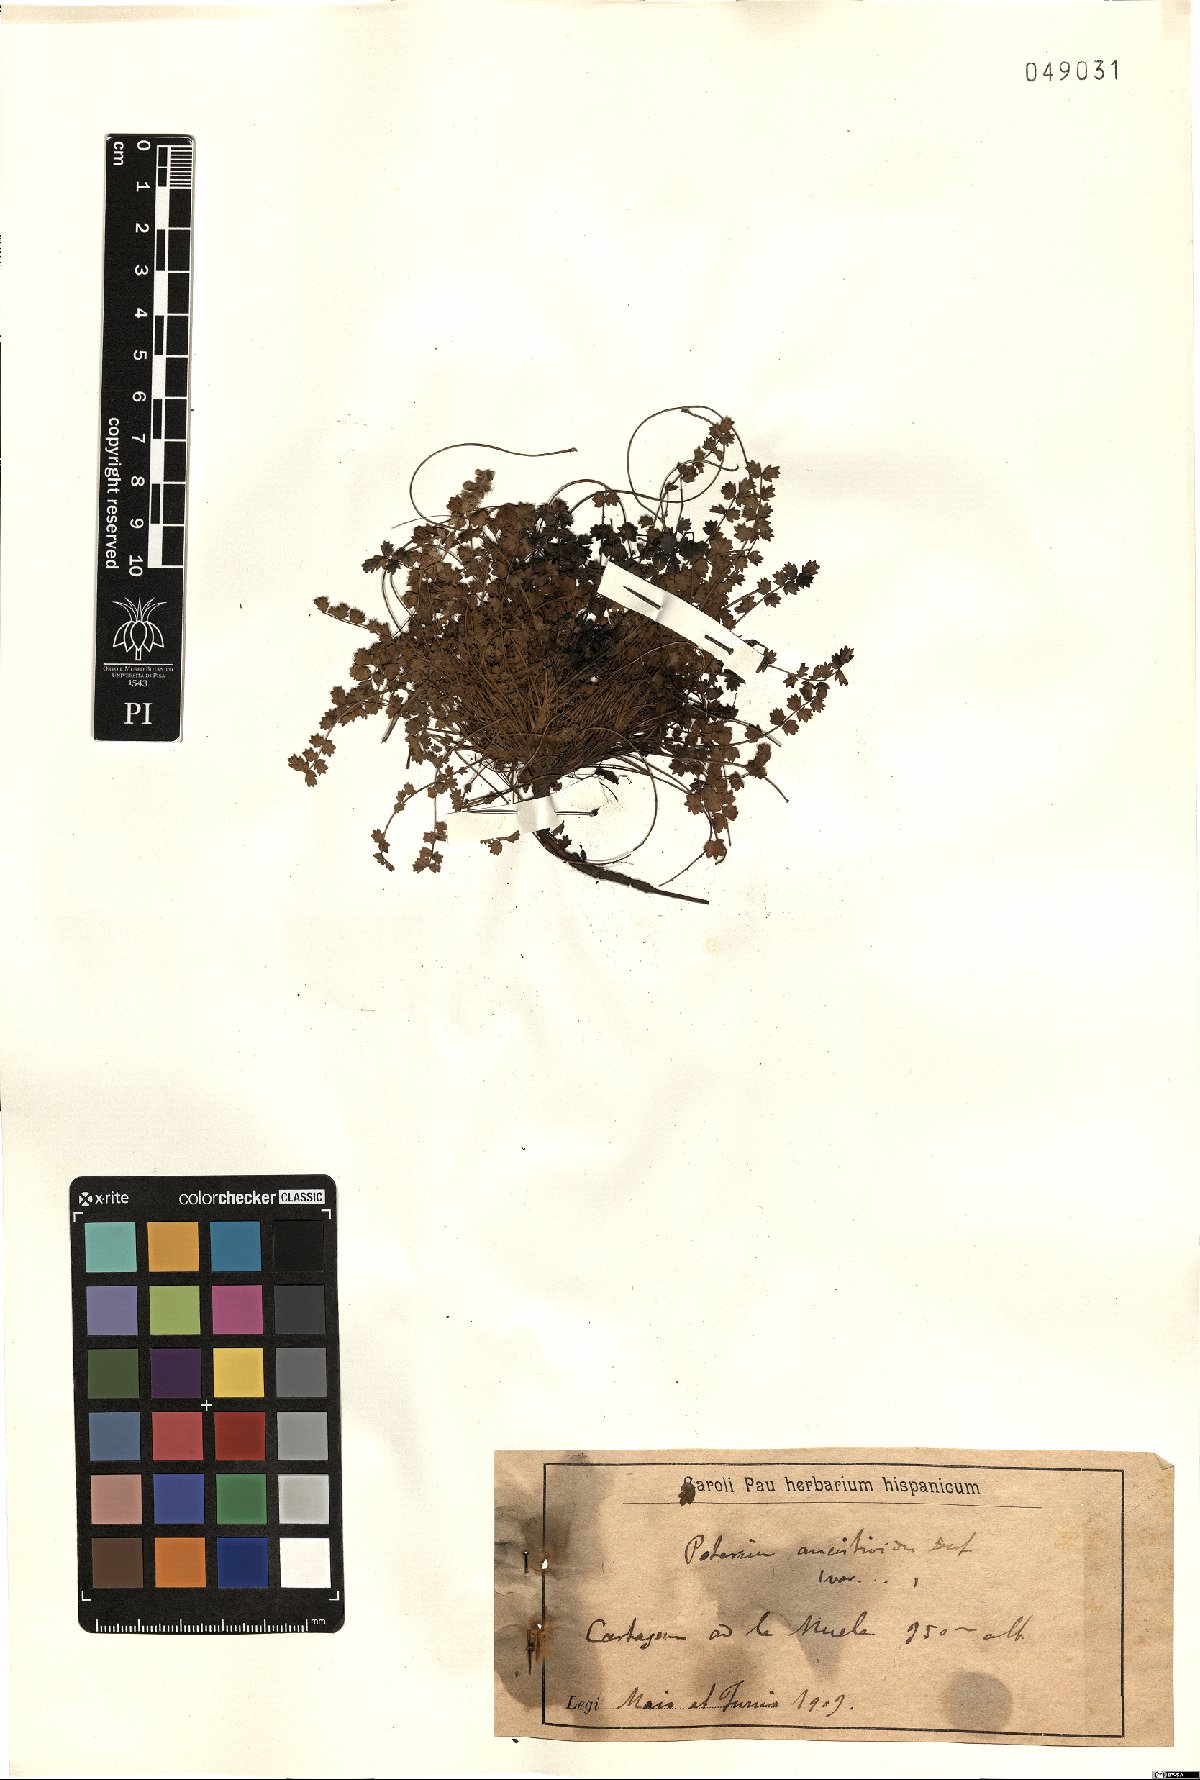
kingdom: Plantae
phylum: Tracheophyta
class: Magnoliopsida
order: Rosales
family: Rosaceae
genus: Poterium
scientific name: Poterium ancistroides
